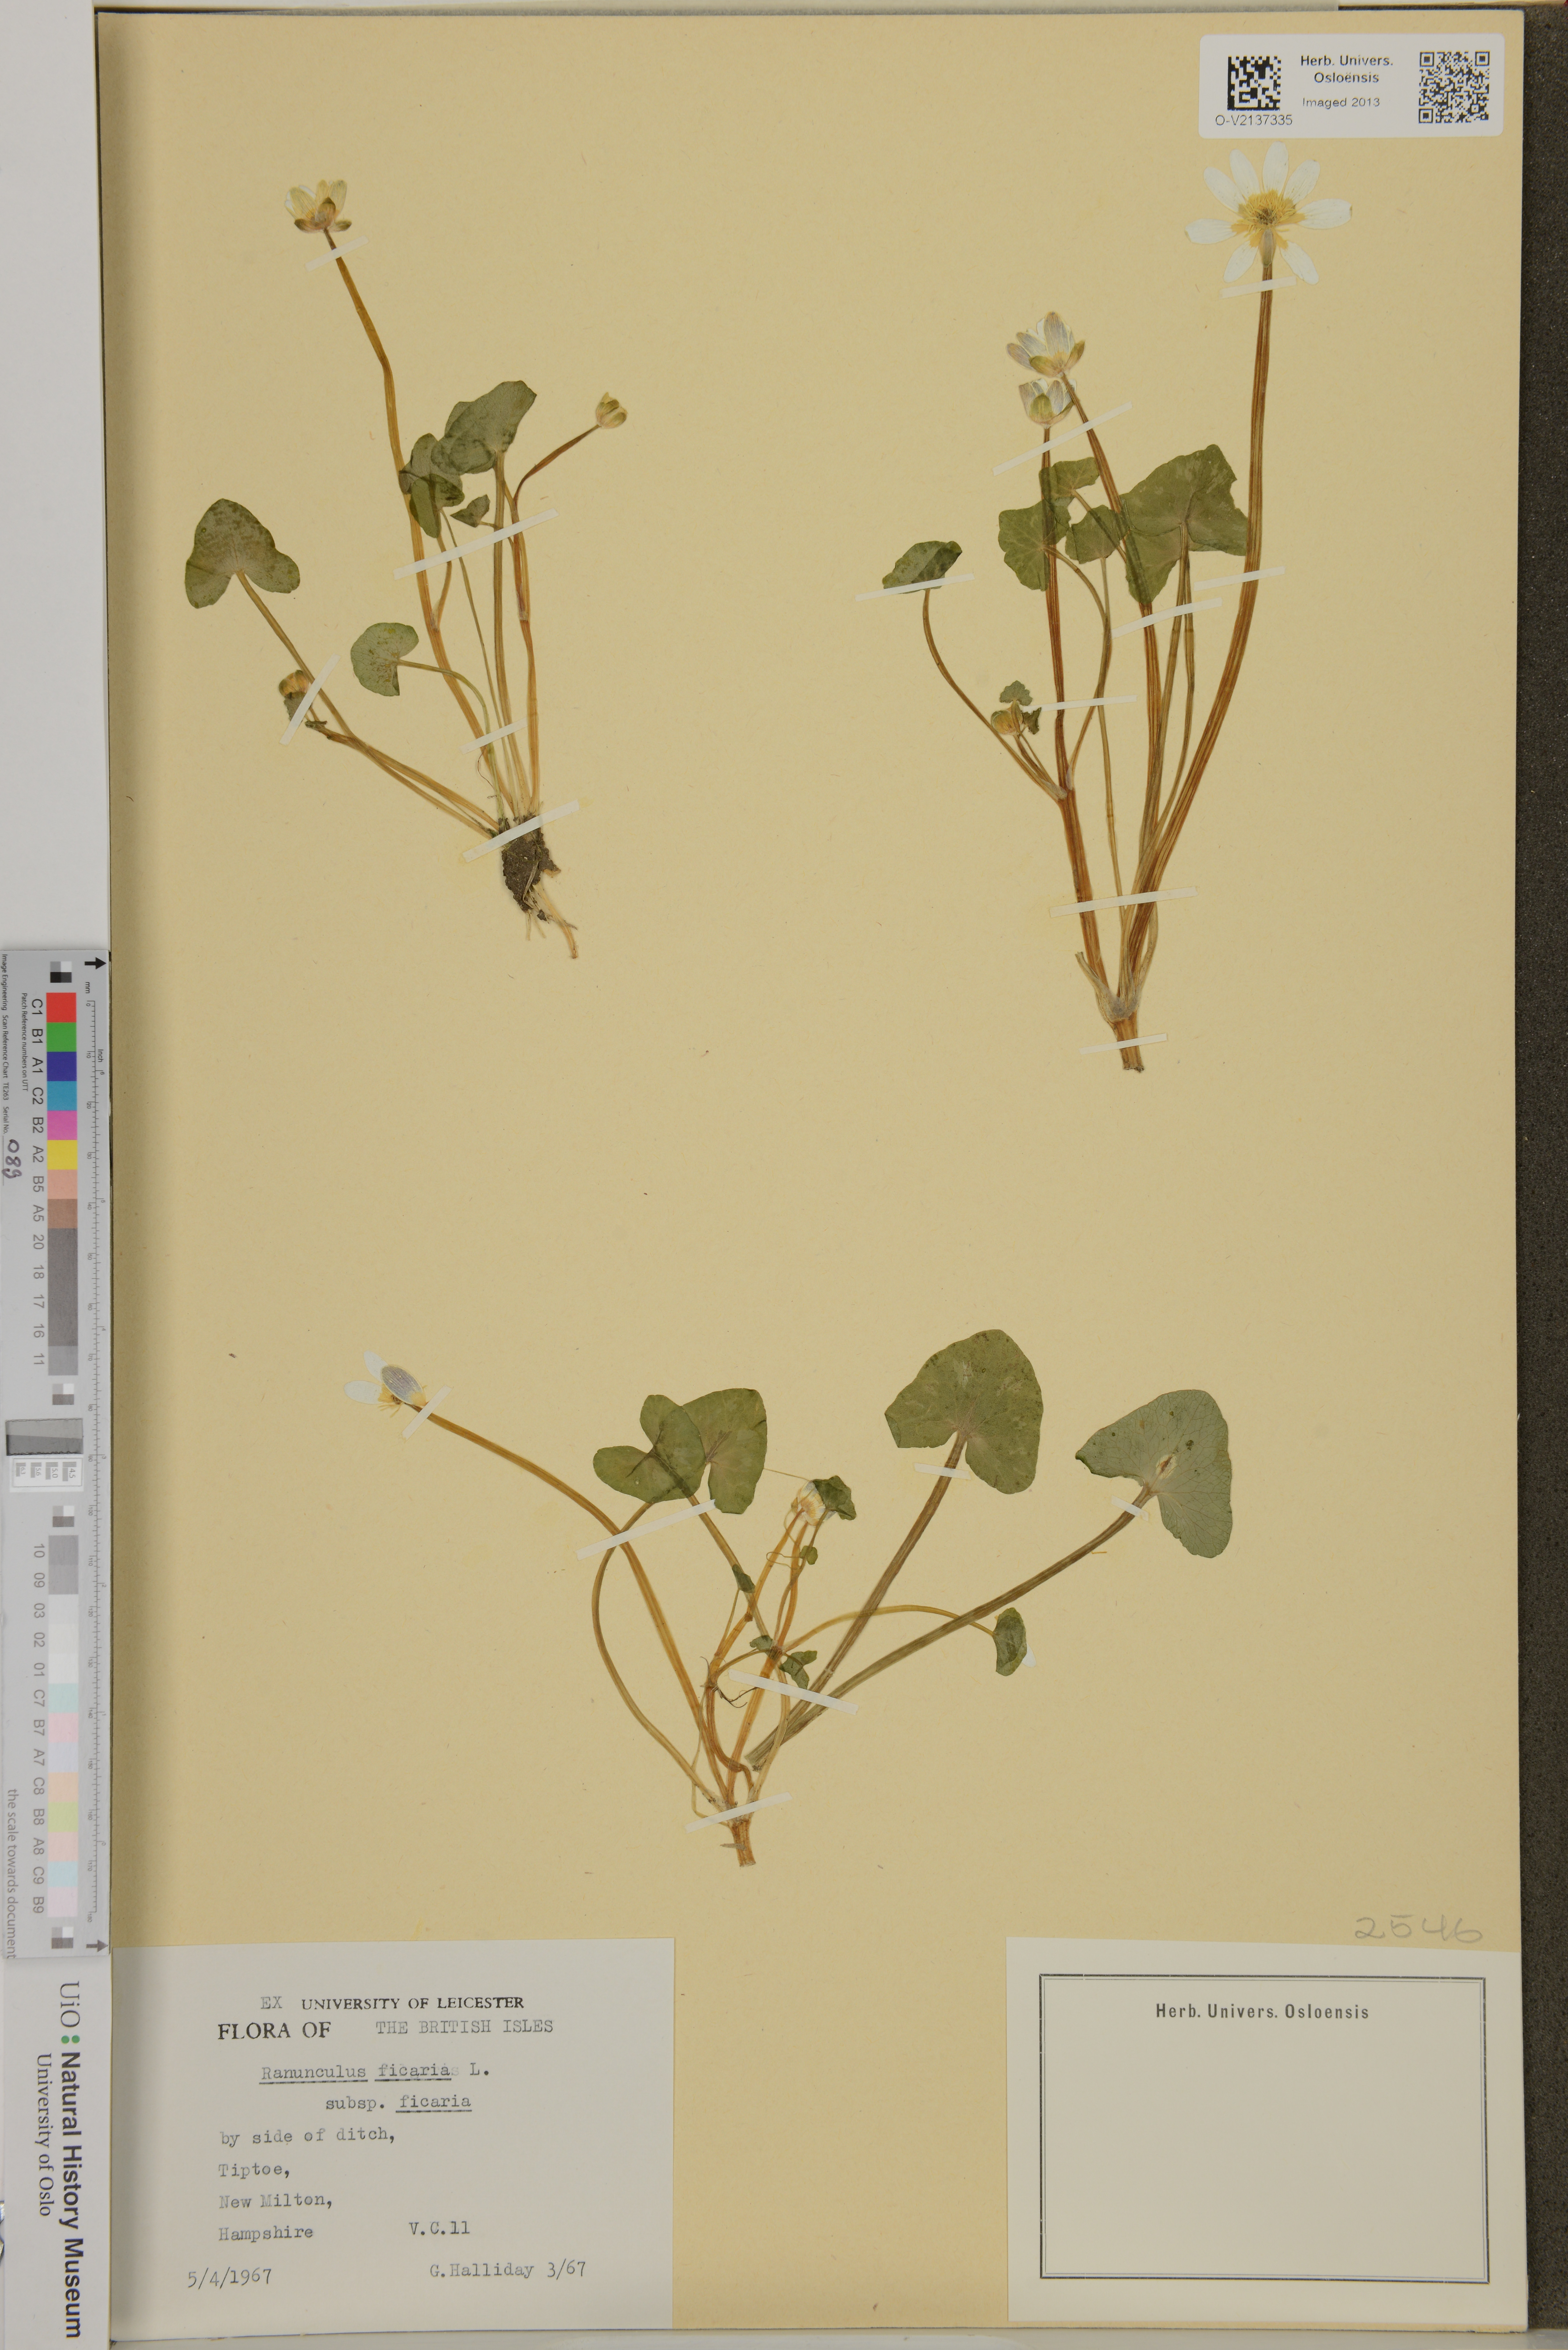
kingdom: Plantae
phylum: Tracheophyta
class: Magnoliopsida
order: Ranunculales
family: Ranunculaceae
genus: Ficaria
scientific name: Ficaria verna
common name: Lesser celandine
